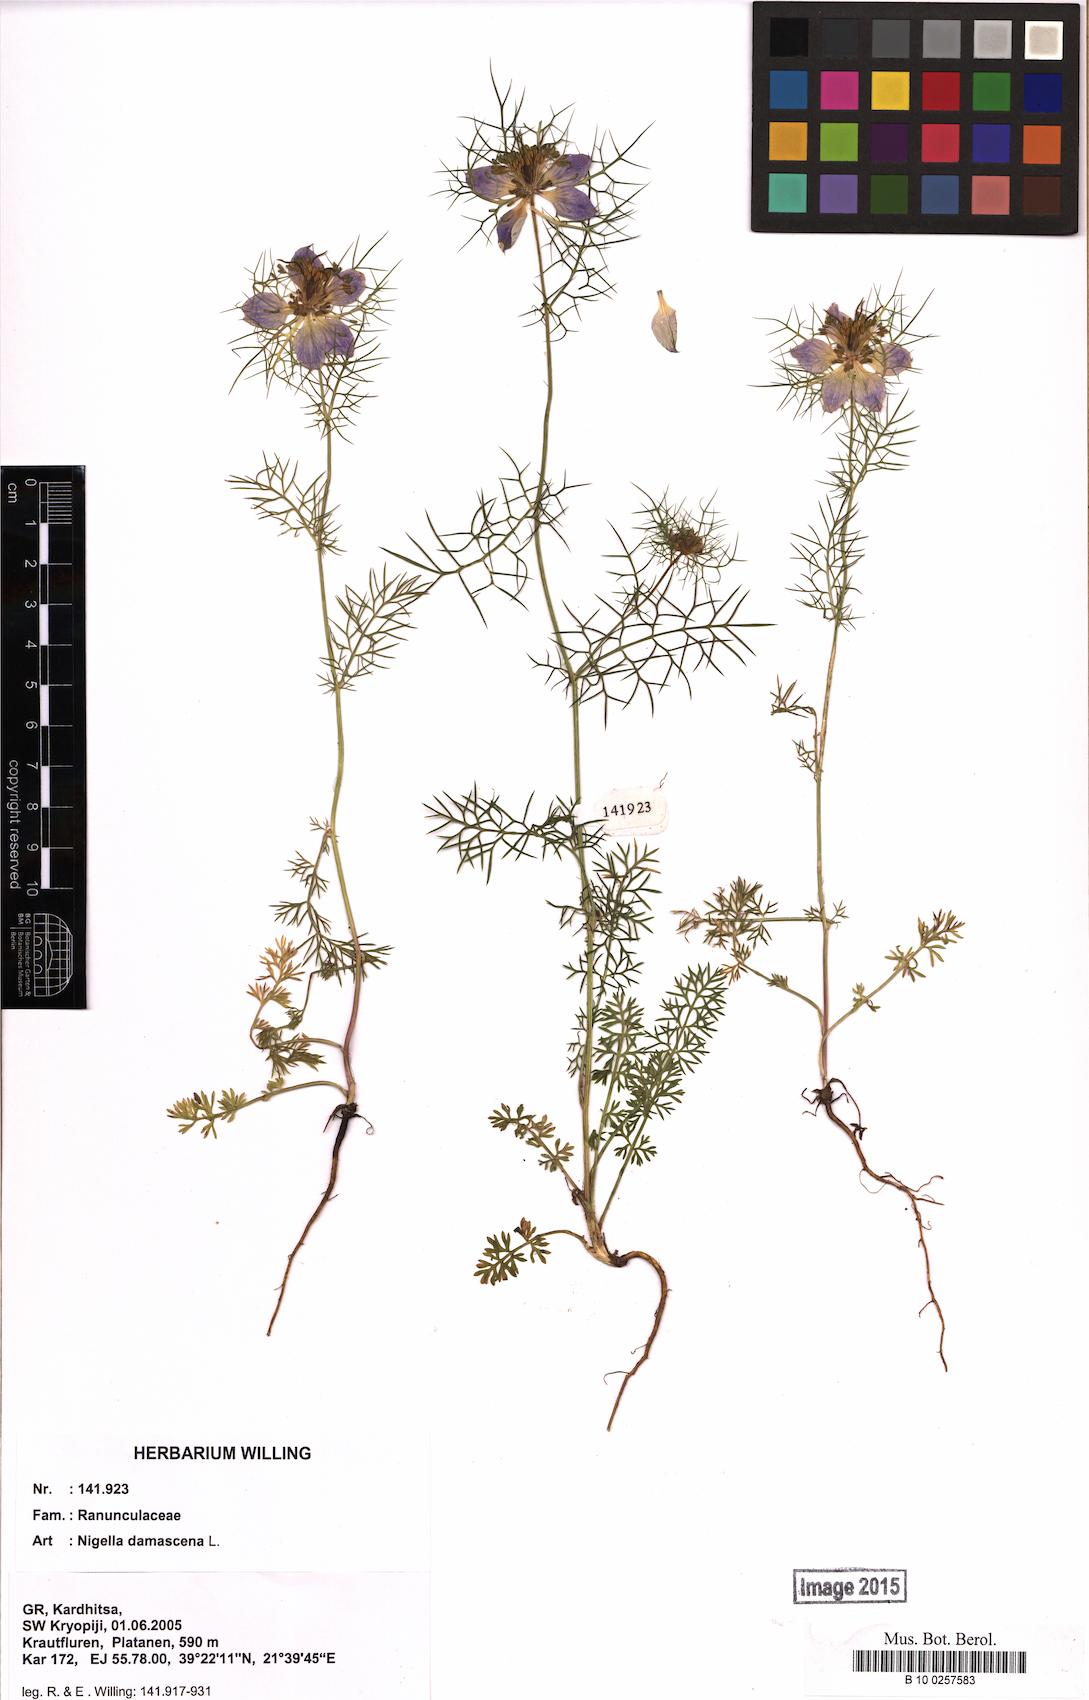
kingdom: Plantae
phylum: Tracheophyta
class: Magnoliopsida
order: Ranunculales
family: Ranunculaceae
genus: Nigella
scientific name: Nigella damascena
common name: Love-in-a-mist
